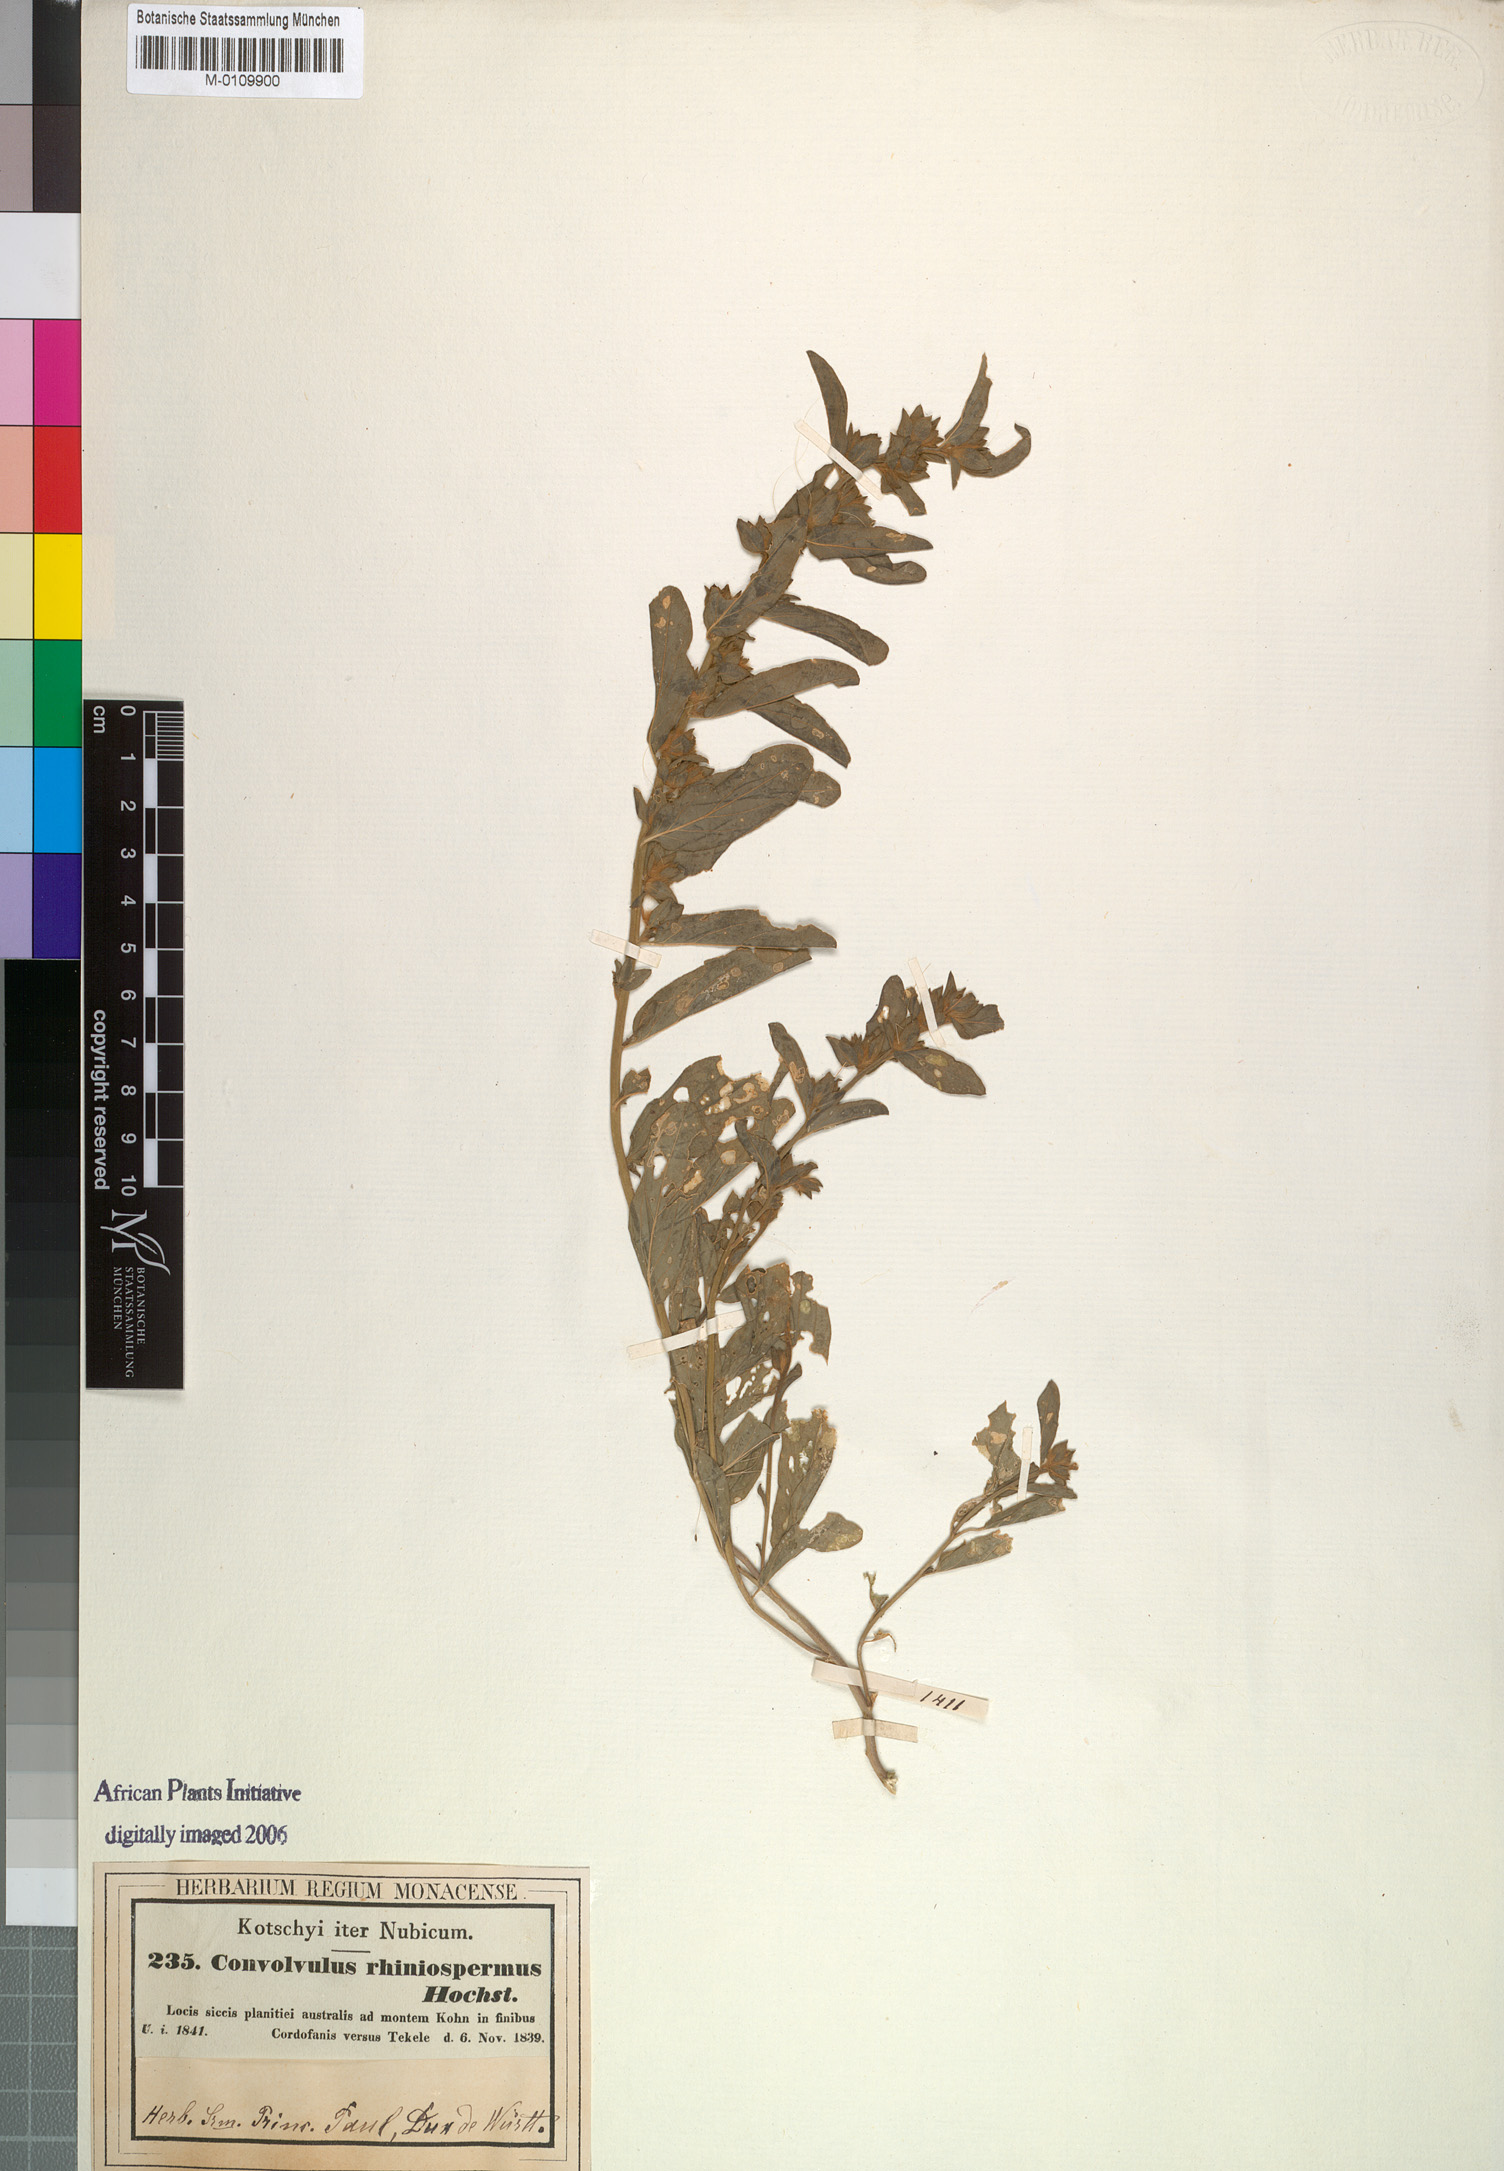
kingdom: Plantae
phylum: Tracheophyta
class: Magnoliopsida
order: Solanales
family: Convolvulaceae
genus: Convolvulus
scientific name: Convolvulus rhyniospermus
